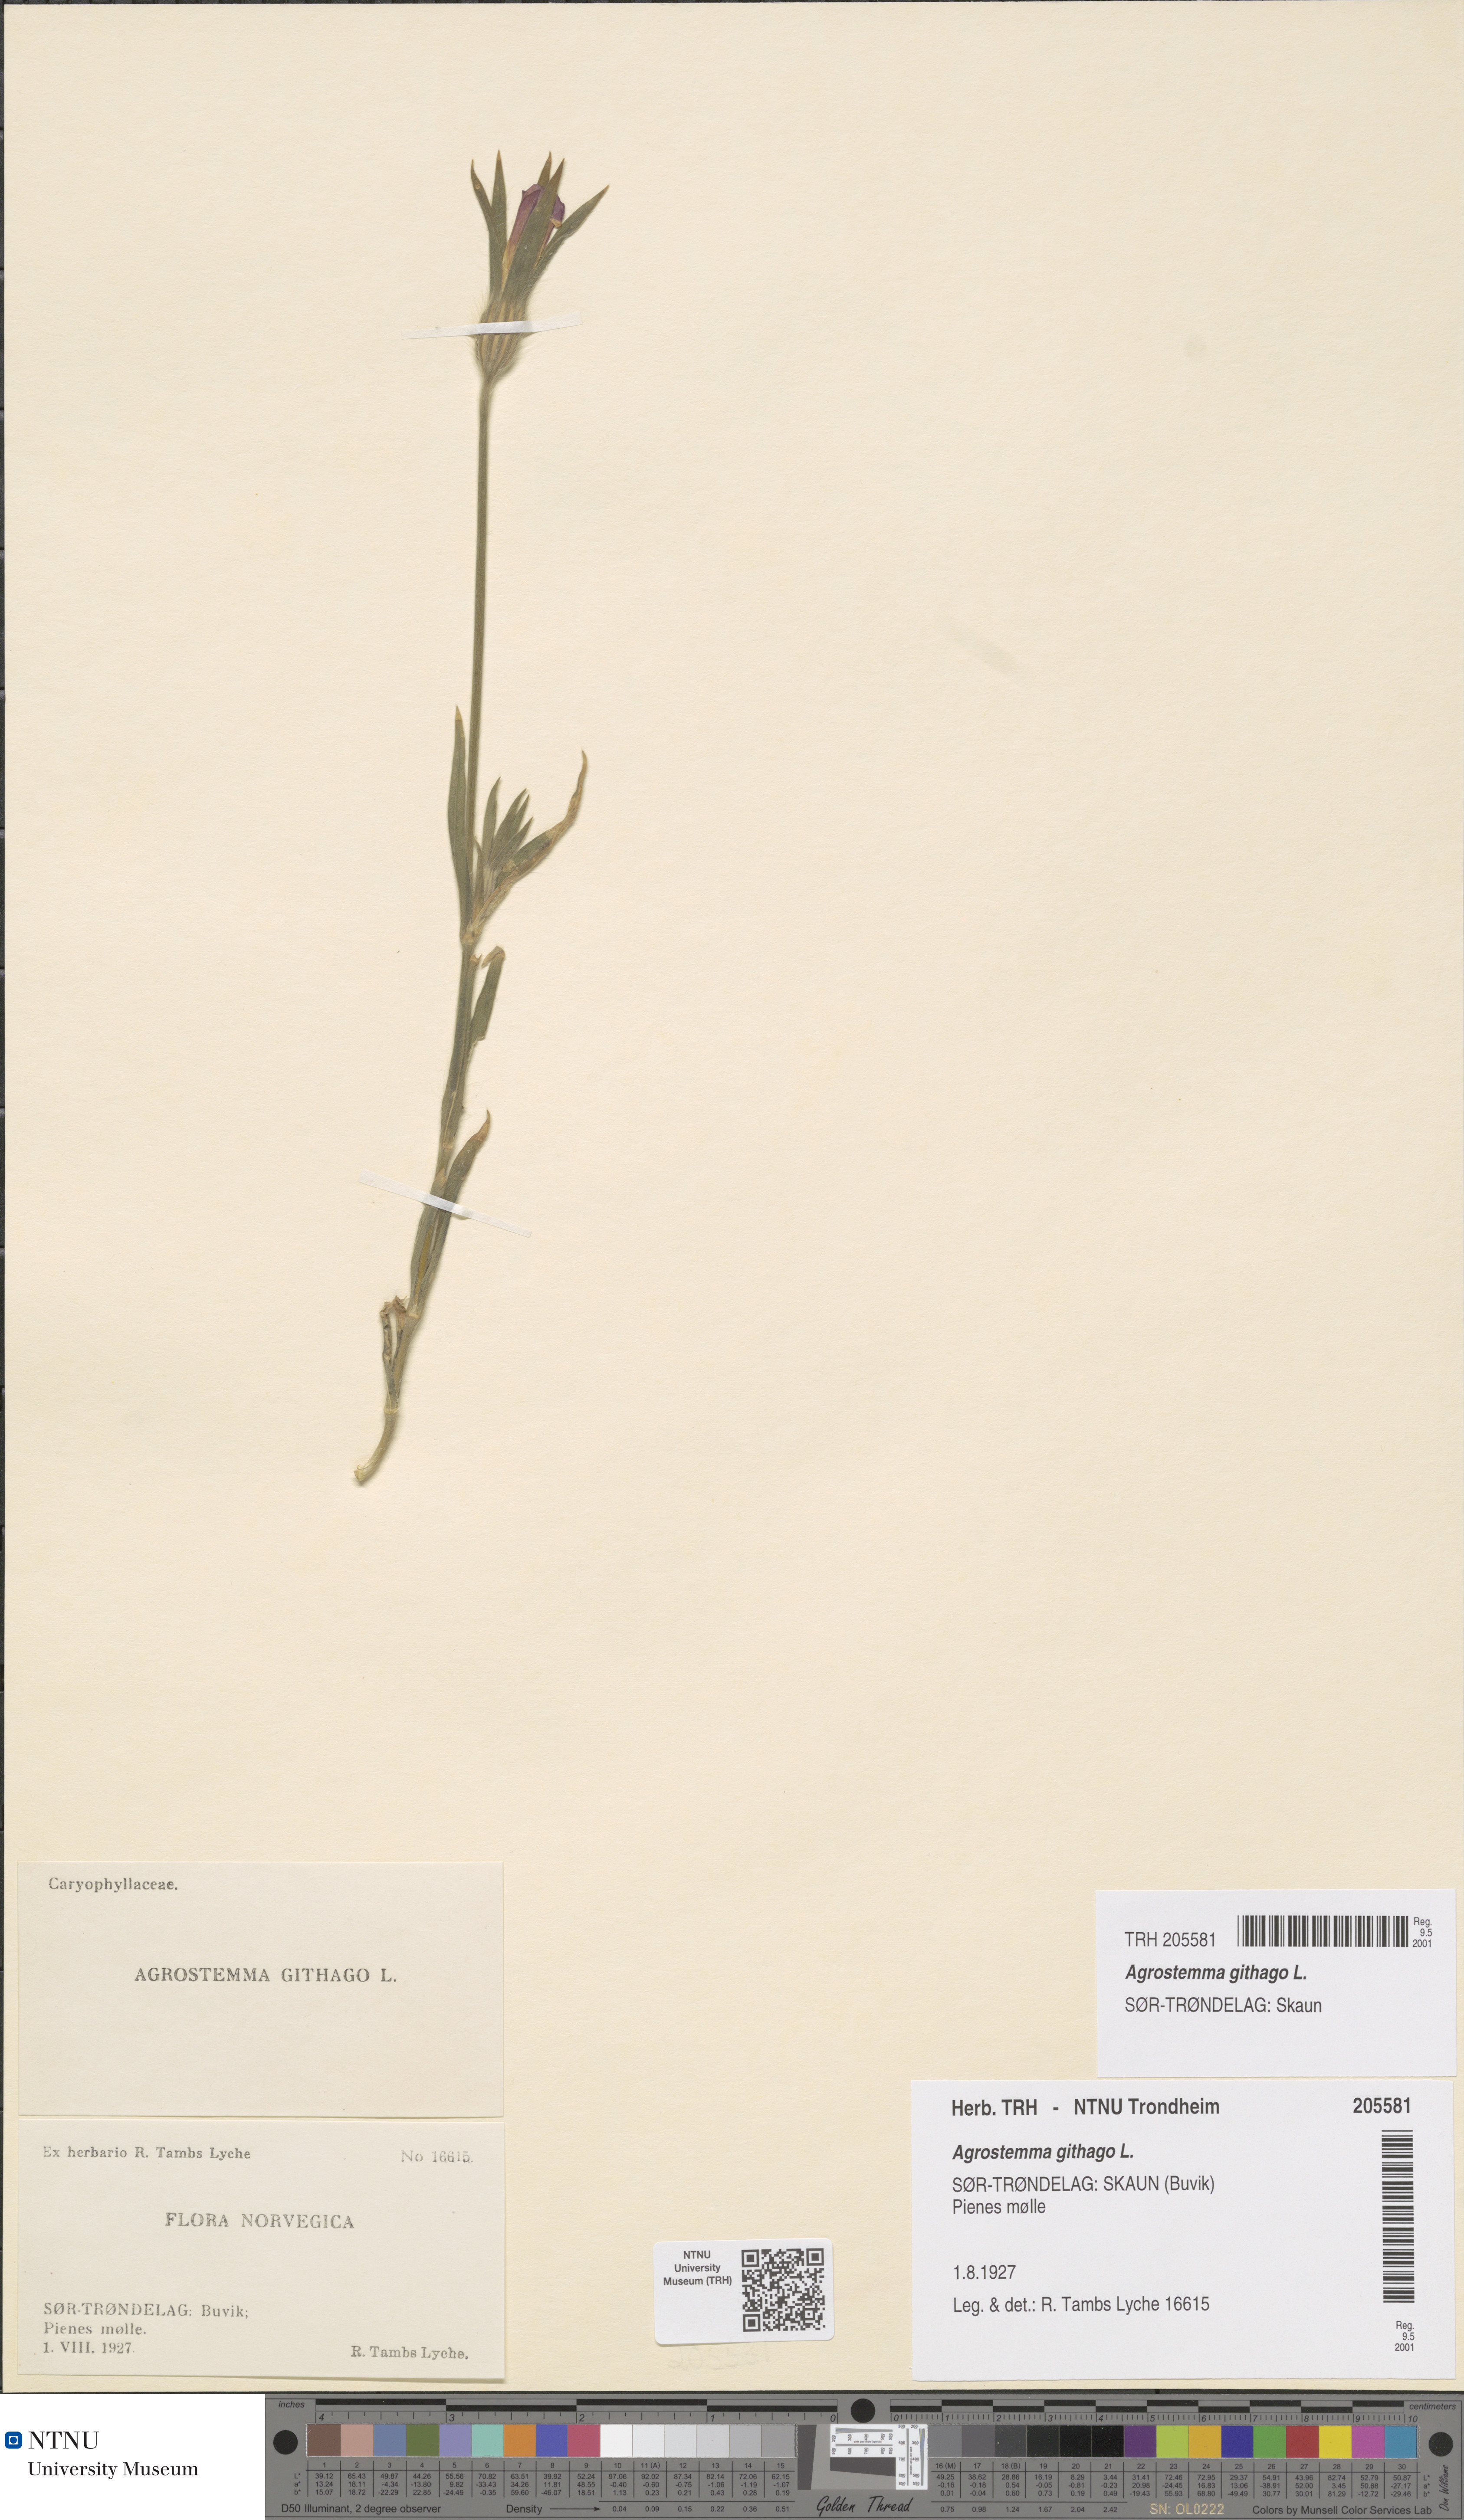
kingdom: Plantae
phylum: Tracheophyta
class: Magnoliopsida
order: Caryophyllales
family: Caryophyllaceae
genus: Agrostemma
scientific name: Agrostemma githago
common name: Common corncockle
